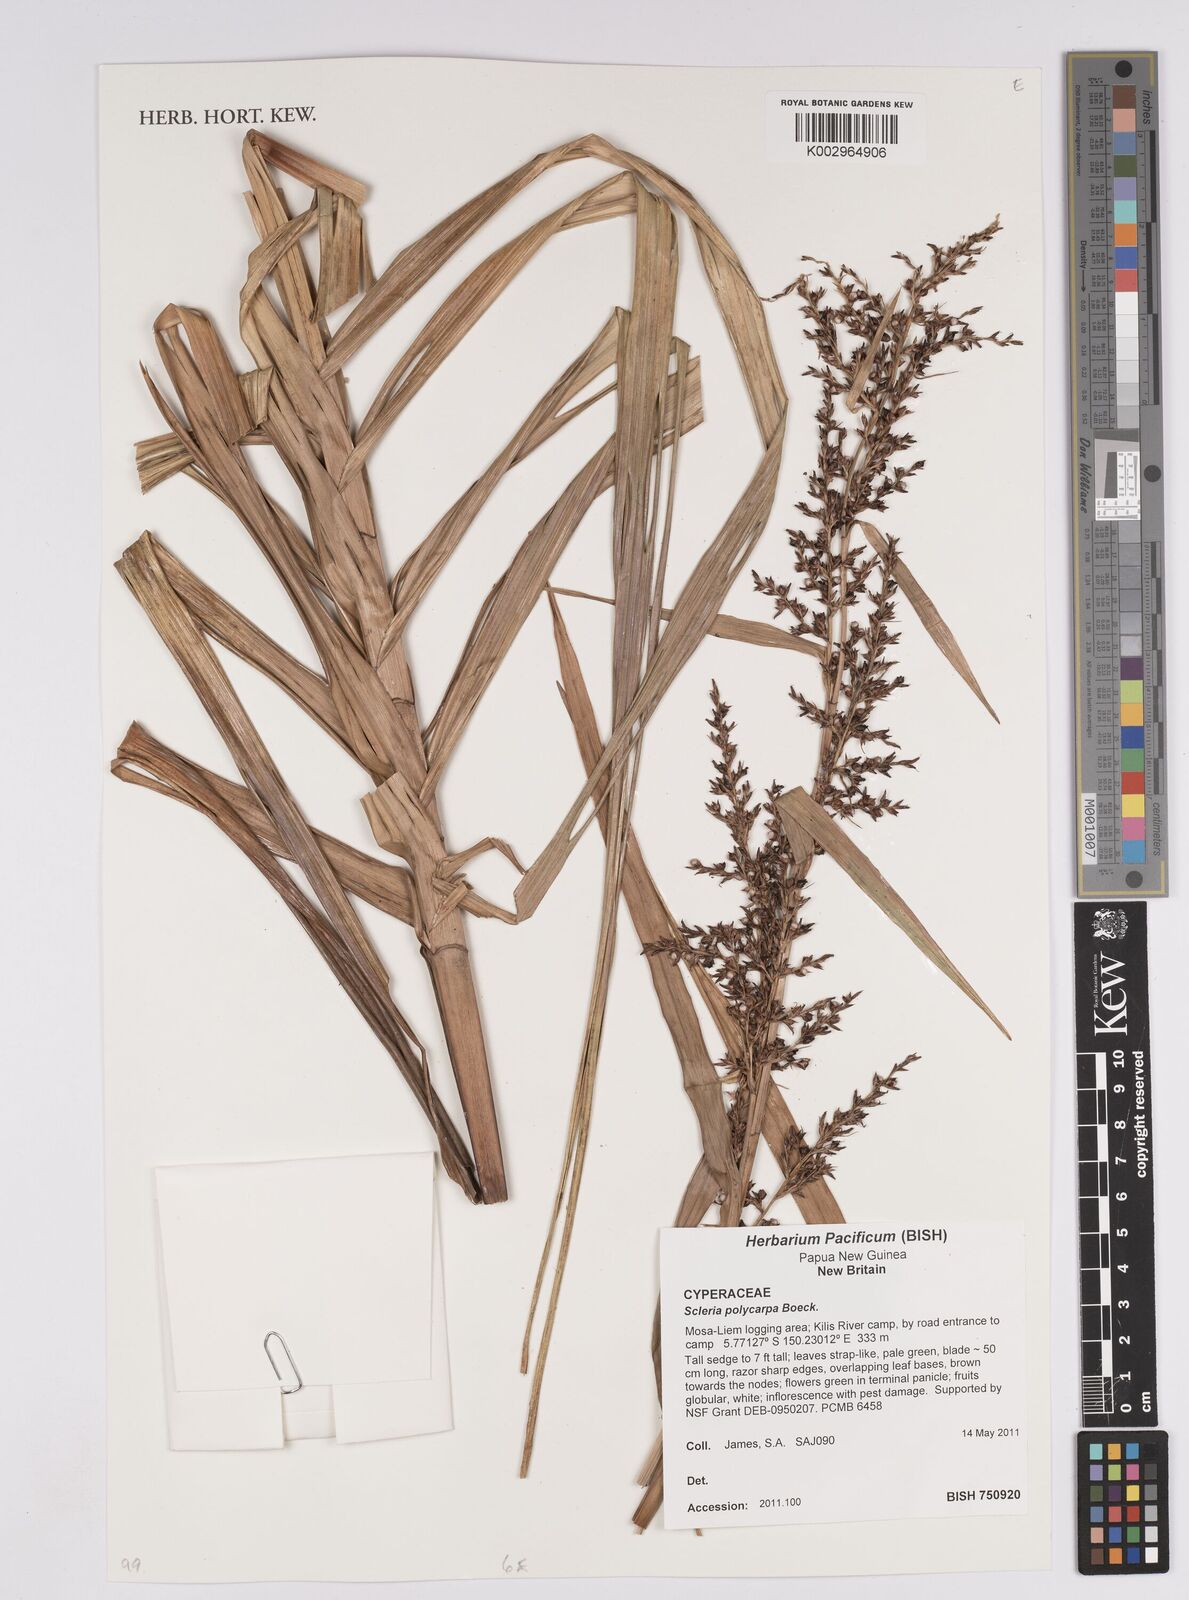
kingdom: Plantae
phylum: Tracheophyta
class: Liliopsida
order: Poales
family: Cyperaceae
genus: Scleria
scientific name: Scleria polycarpa
